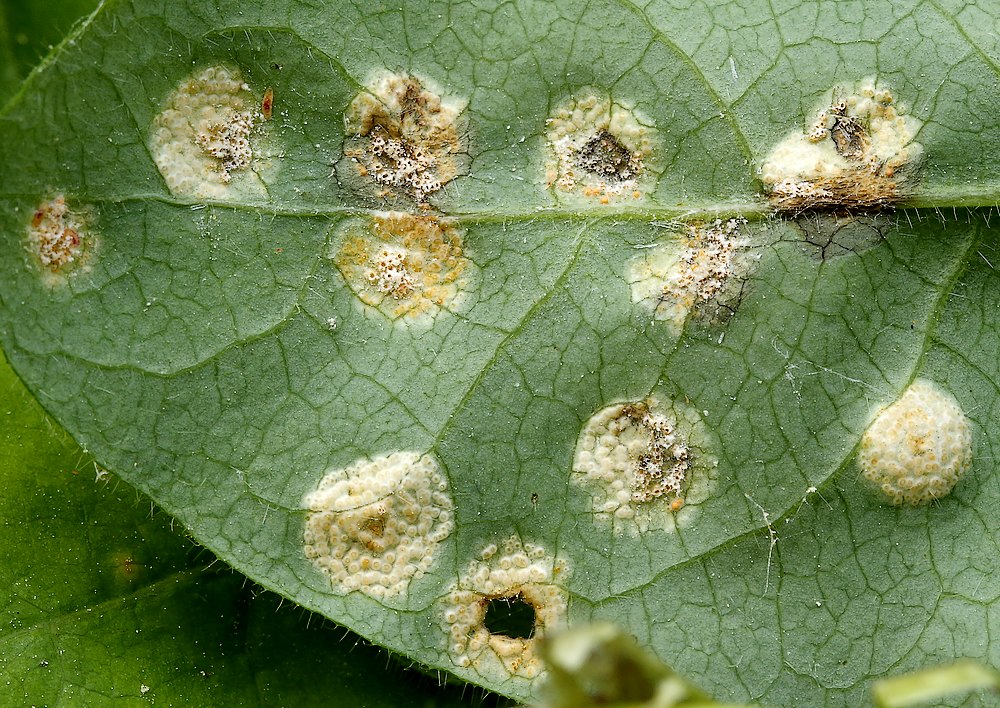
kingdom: Fungi
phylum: Basidiomycota
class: Pucciniomycetes
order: Pucciniales
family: Pucciniaceae
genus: Puccinia
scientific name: Puccinia festucae
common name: gedeblad-tvecellerust
